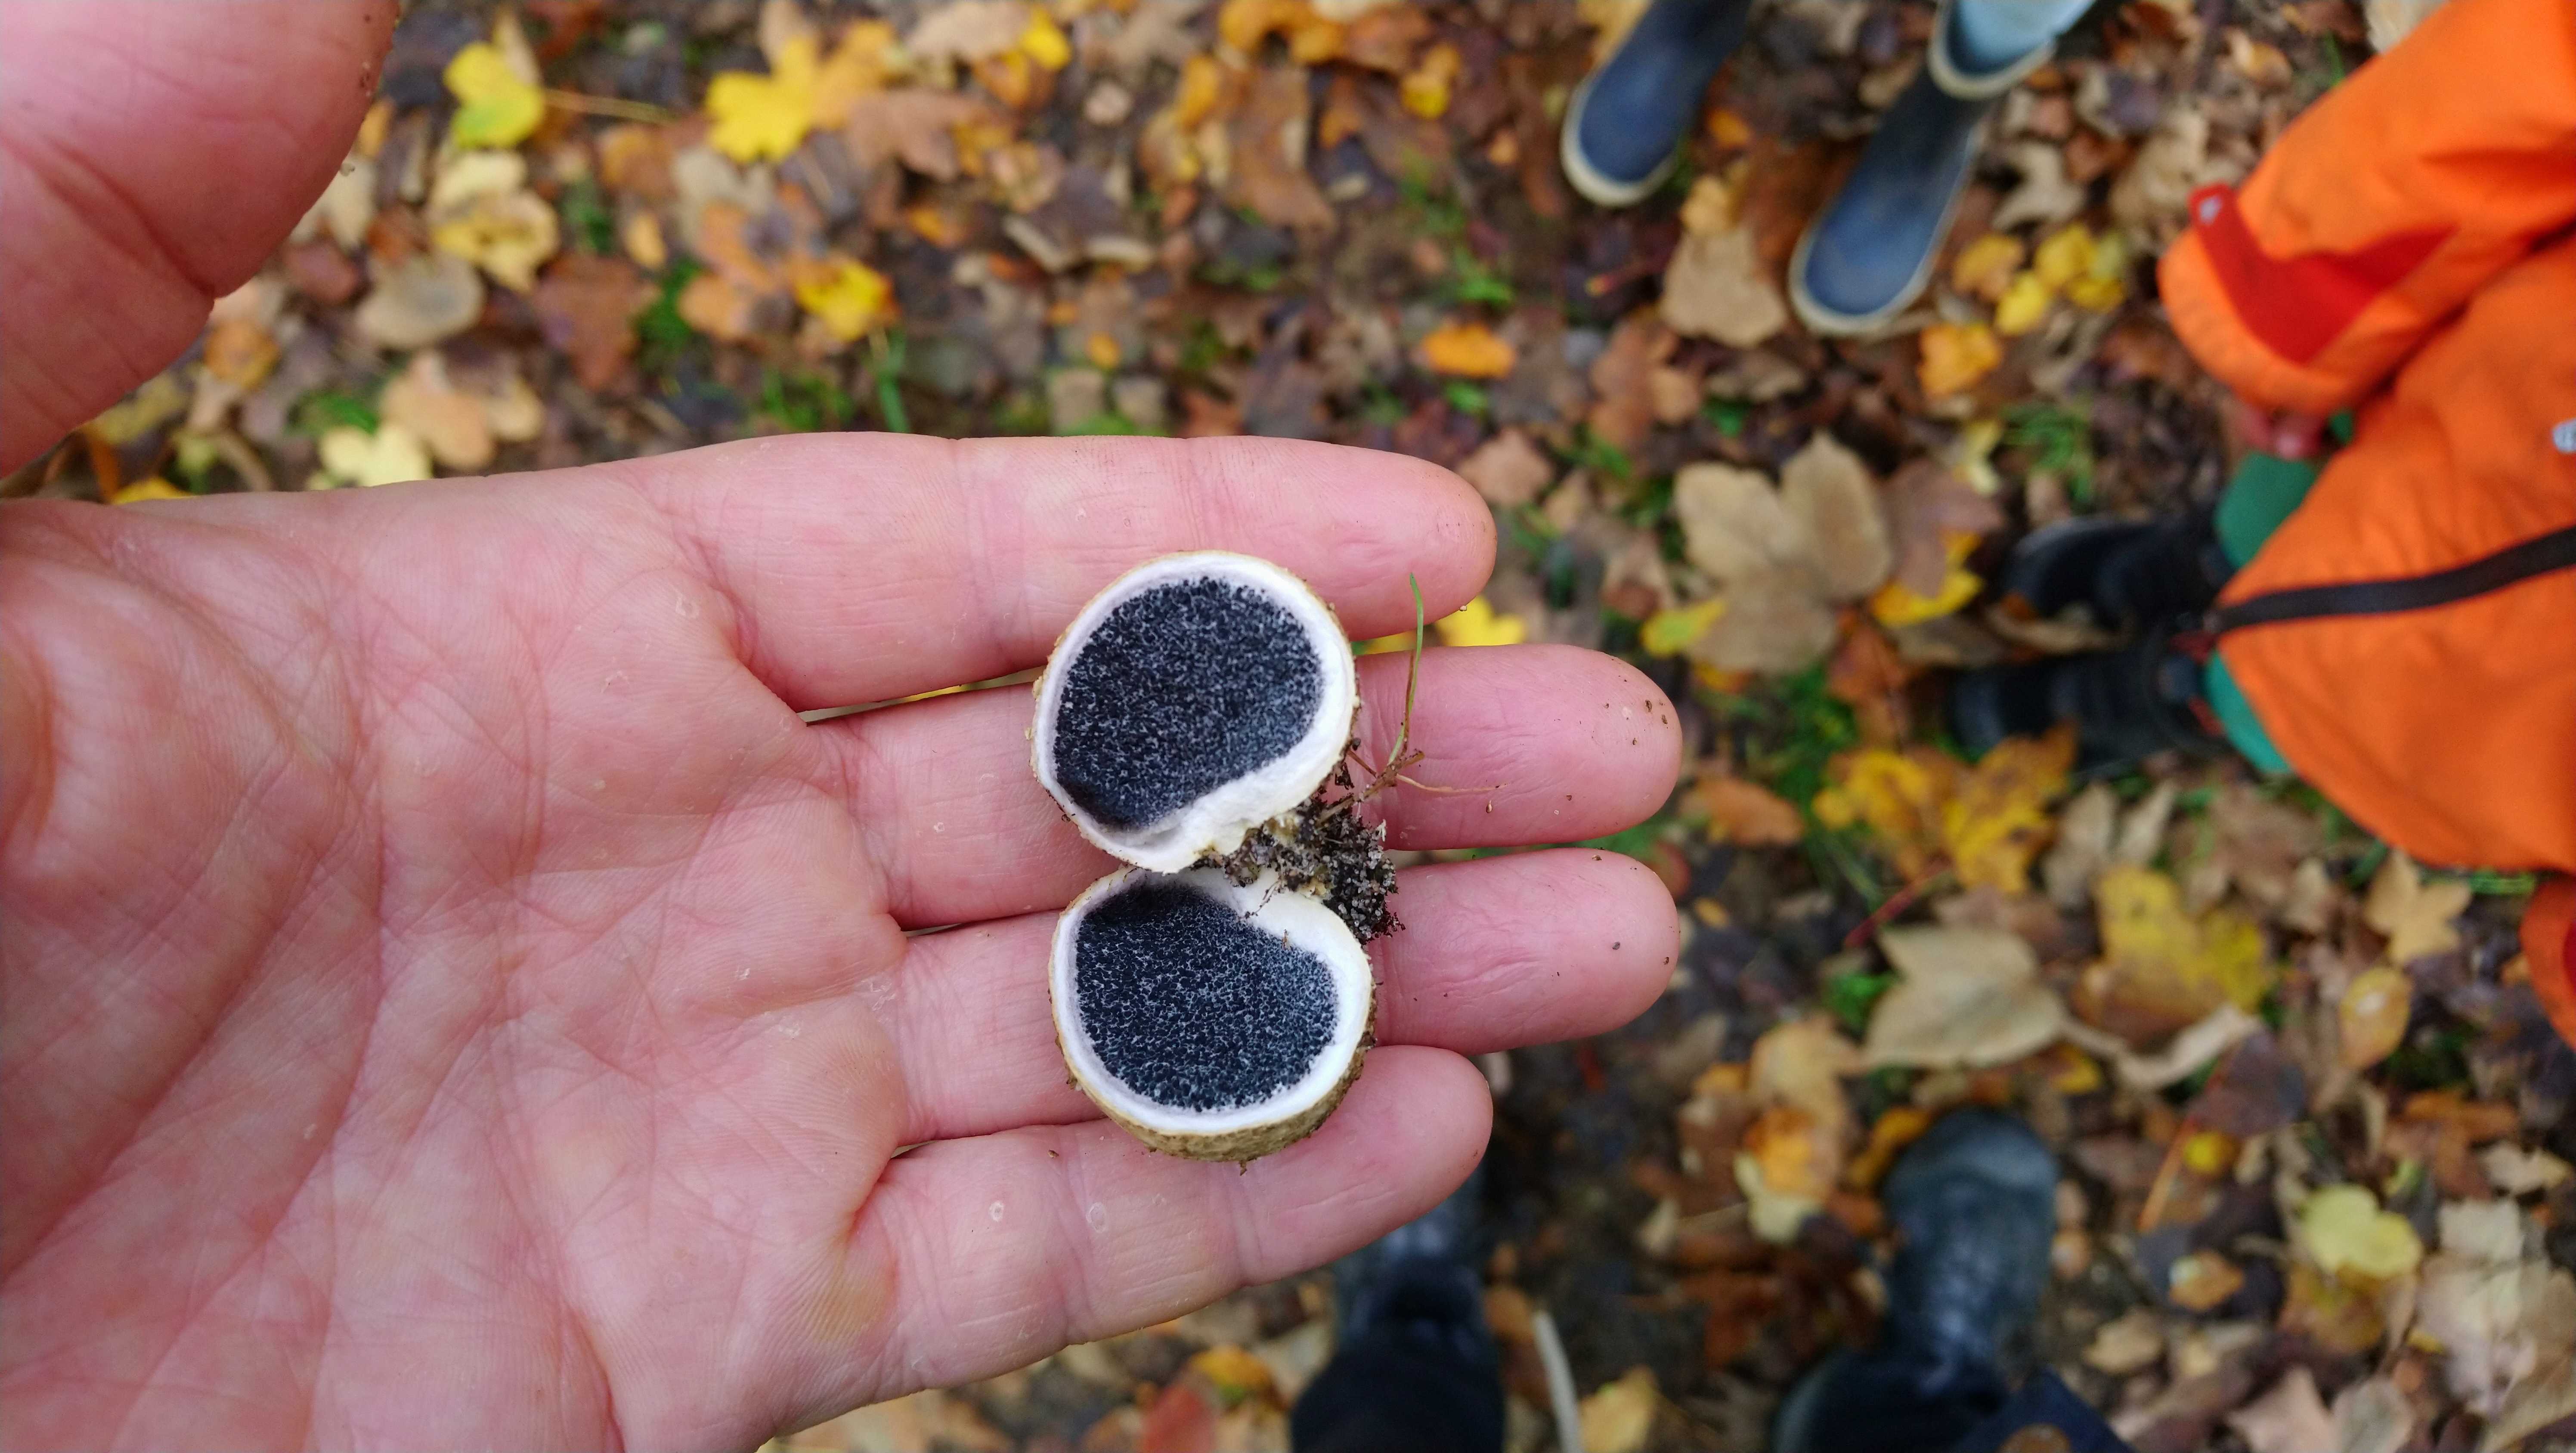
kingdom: Fungi
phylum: Basidiomycota
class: Agaricomycetes
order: Boletales
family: Sclerodermataceae
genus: Scleroderma
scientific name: Scleroderma citrinum
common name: almindelig bruskbold
